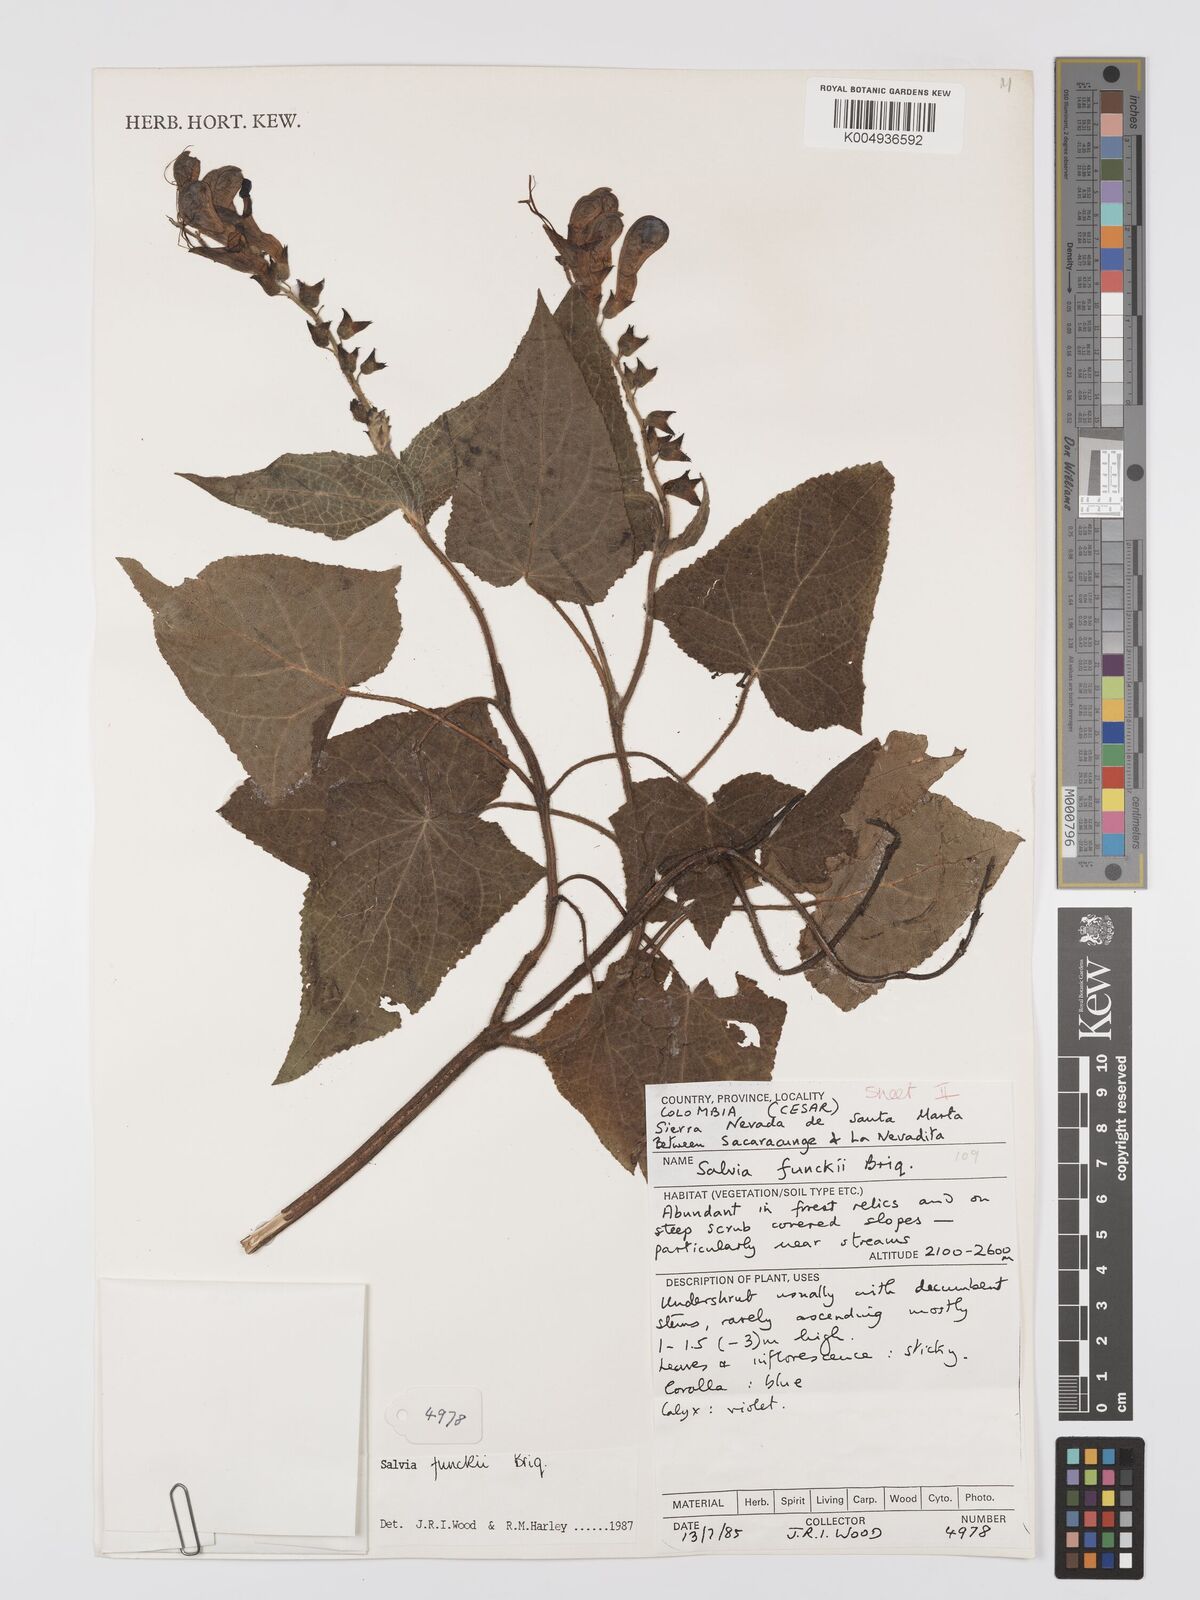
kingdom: Plantae
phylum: Tracheophyta
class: Magnoliopsida
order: Lamiales
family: Lamiaceae
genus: Salvia
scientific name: Salvia funckii
